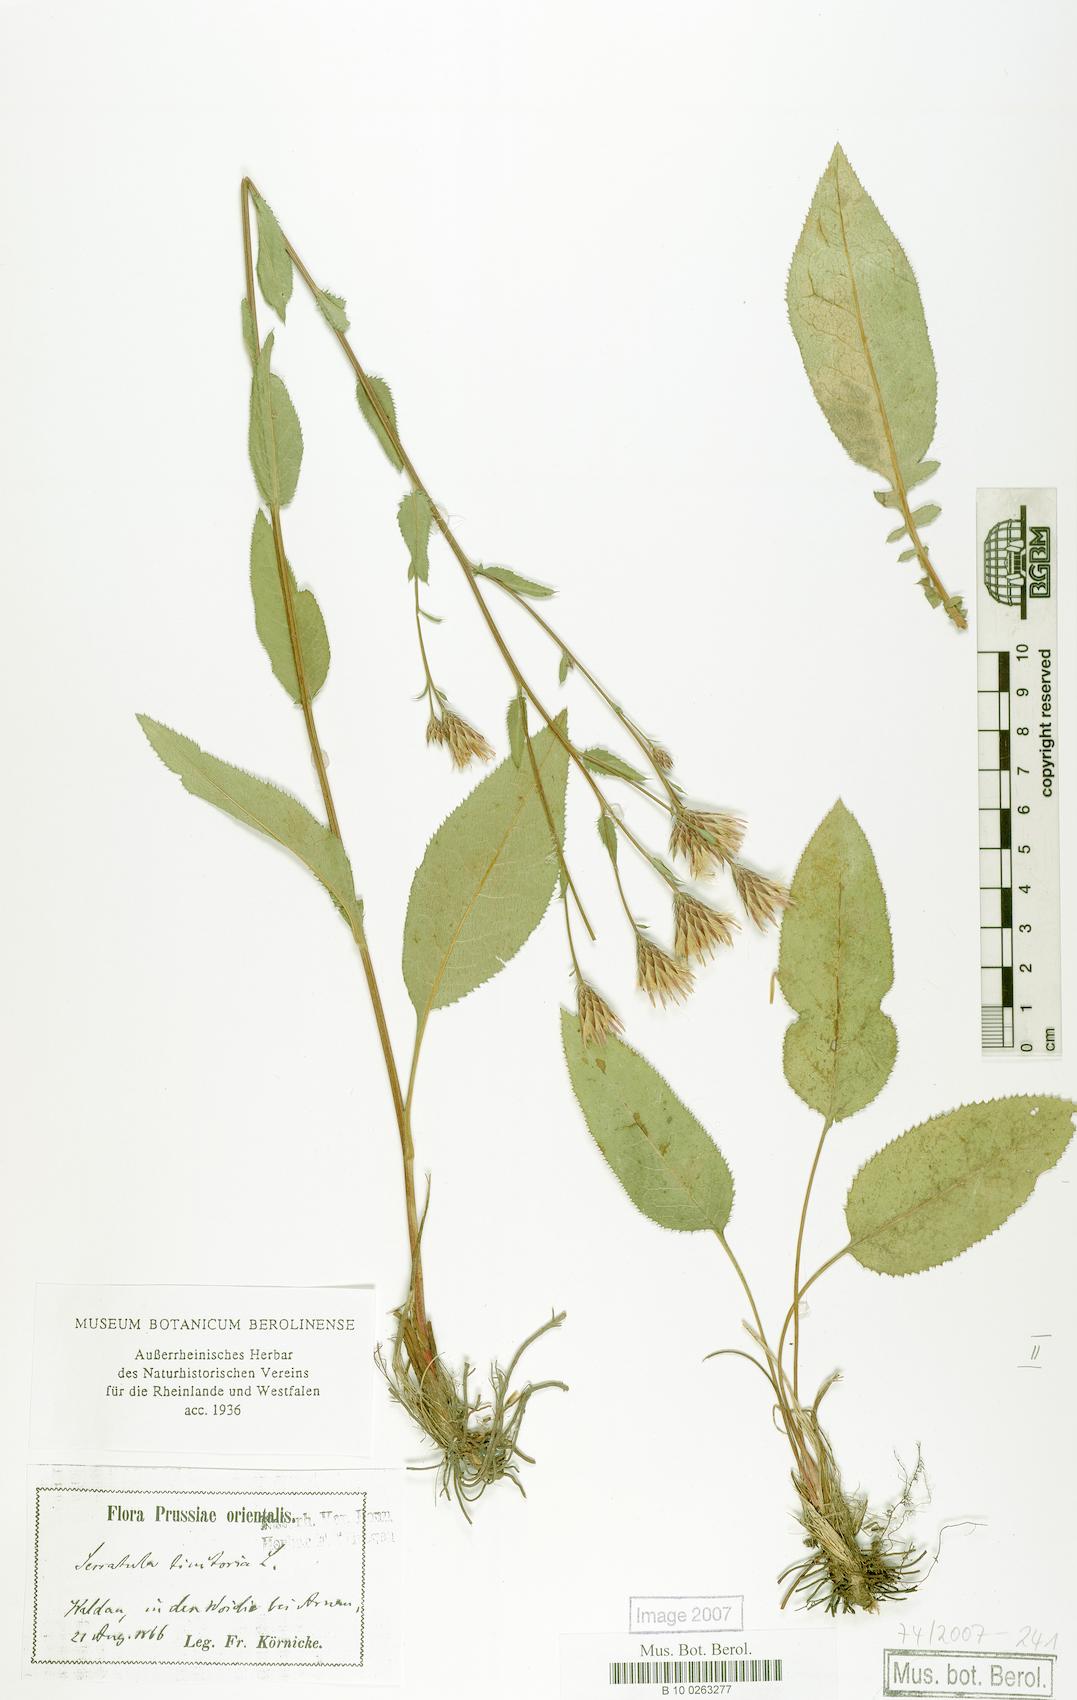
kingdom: Plantae
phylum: Tracheophyta
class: Magnoliopsida
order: Asterales
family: Asteraceae
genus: Serratula
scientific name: Serratula tinctoria
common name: Saw-wort
